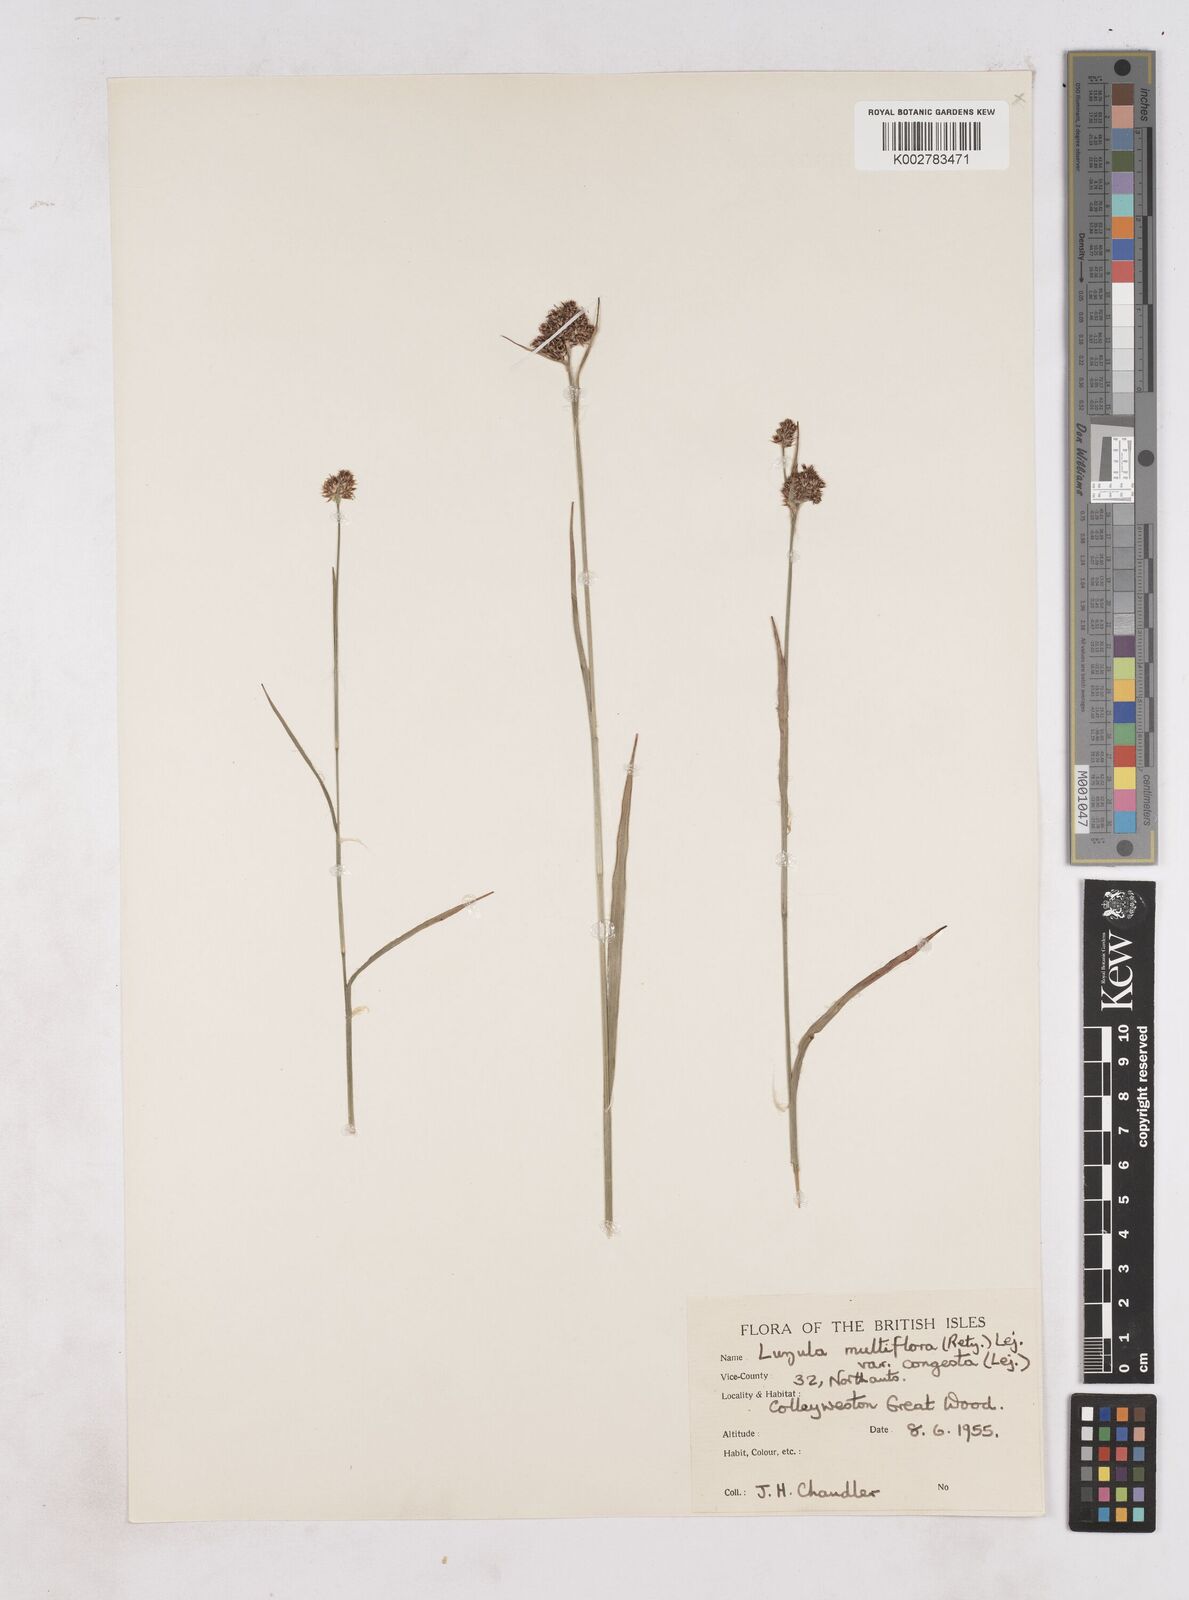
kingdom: Plantae
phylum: Tracheophyta
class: Liliopsida
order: Poales
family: Juncaceae
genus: Luzula
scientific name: Luzula campestris
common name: Field wood-rush
